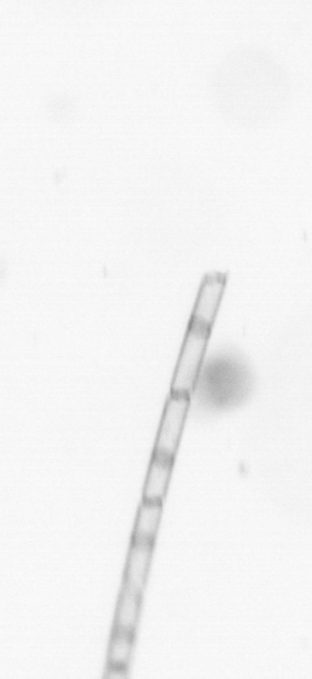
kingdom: Chromista
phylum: Ochrophyta
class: Bacillariophyceae
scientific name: Bacillariophyceae
